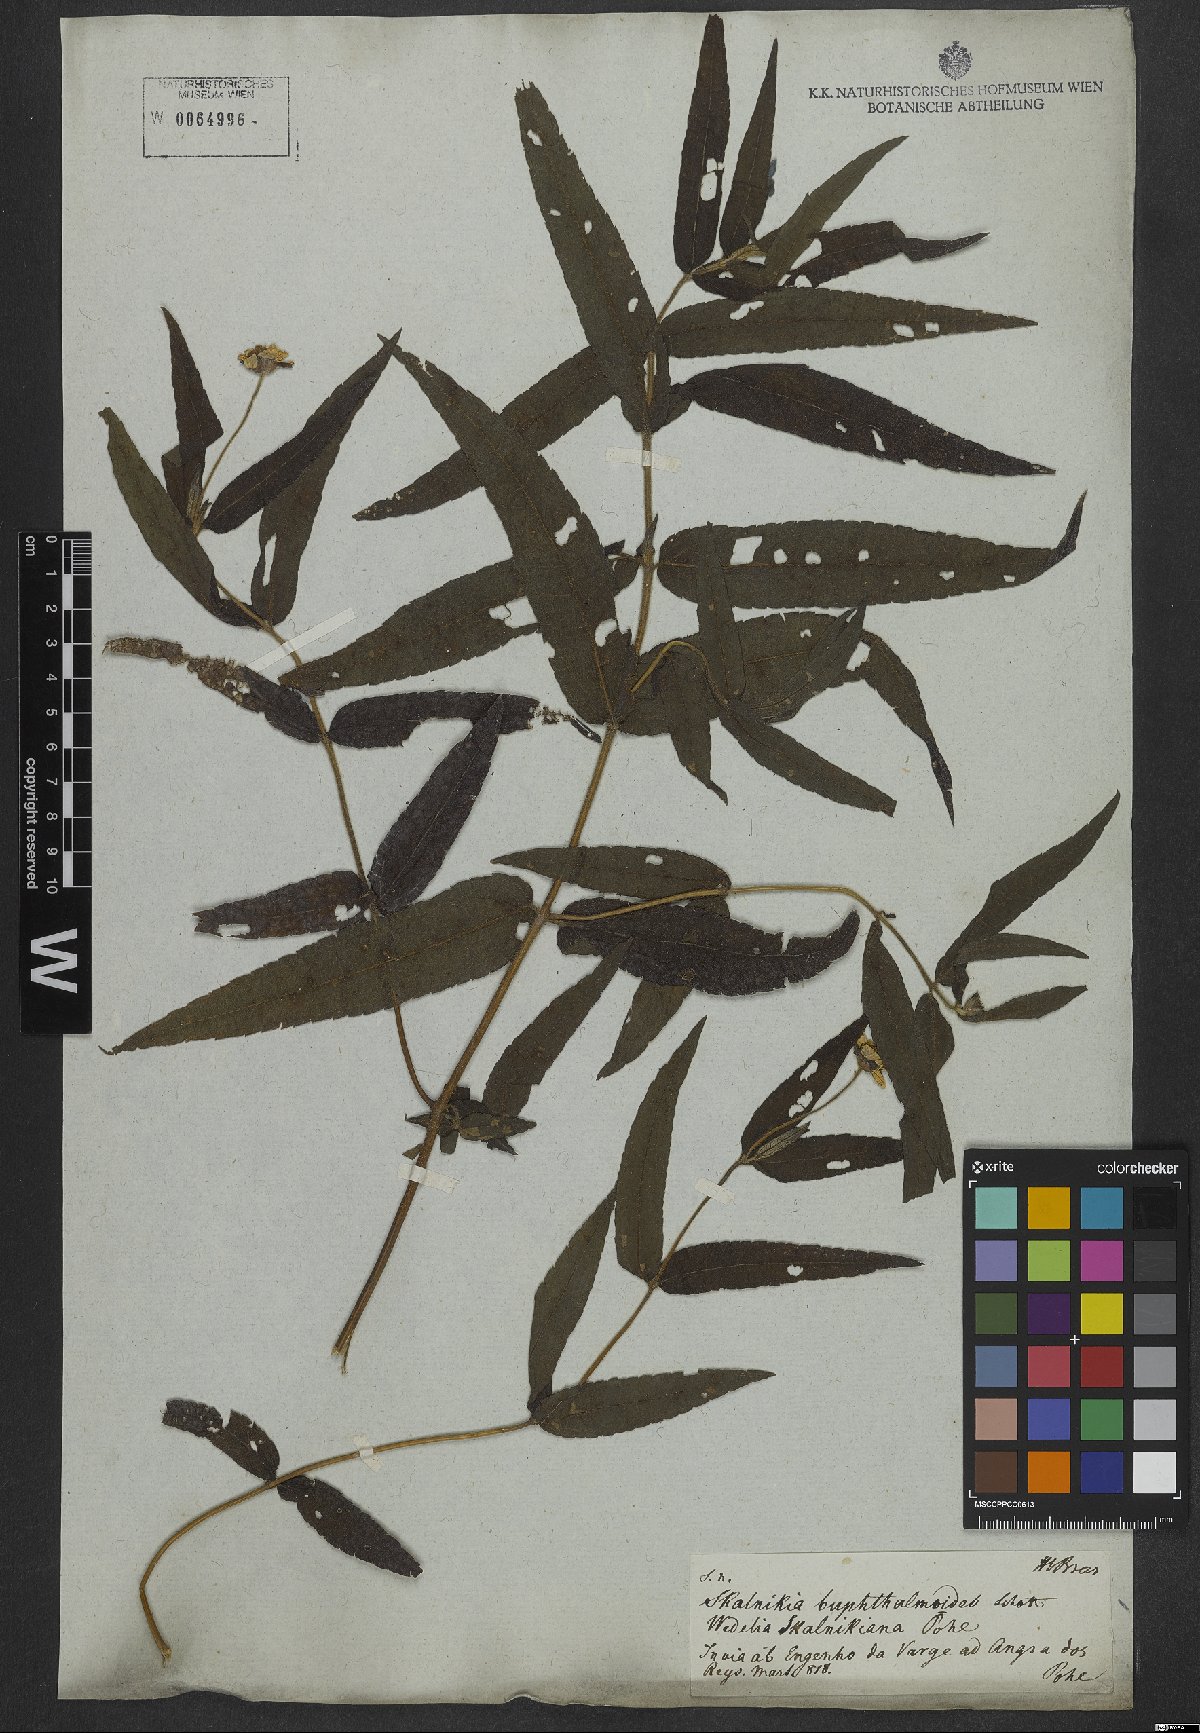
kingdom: Plantae
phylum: Tracheophyta
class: Magnoliopsida
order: Asterales
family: Asteraceae
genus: Tilesia
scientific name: Tilesia
